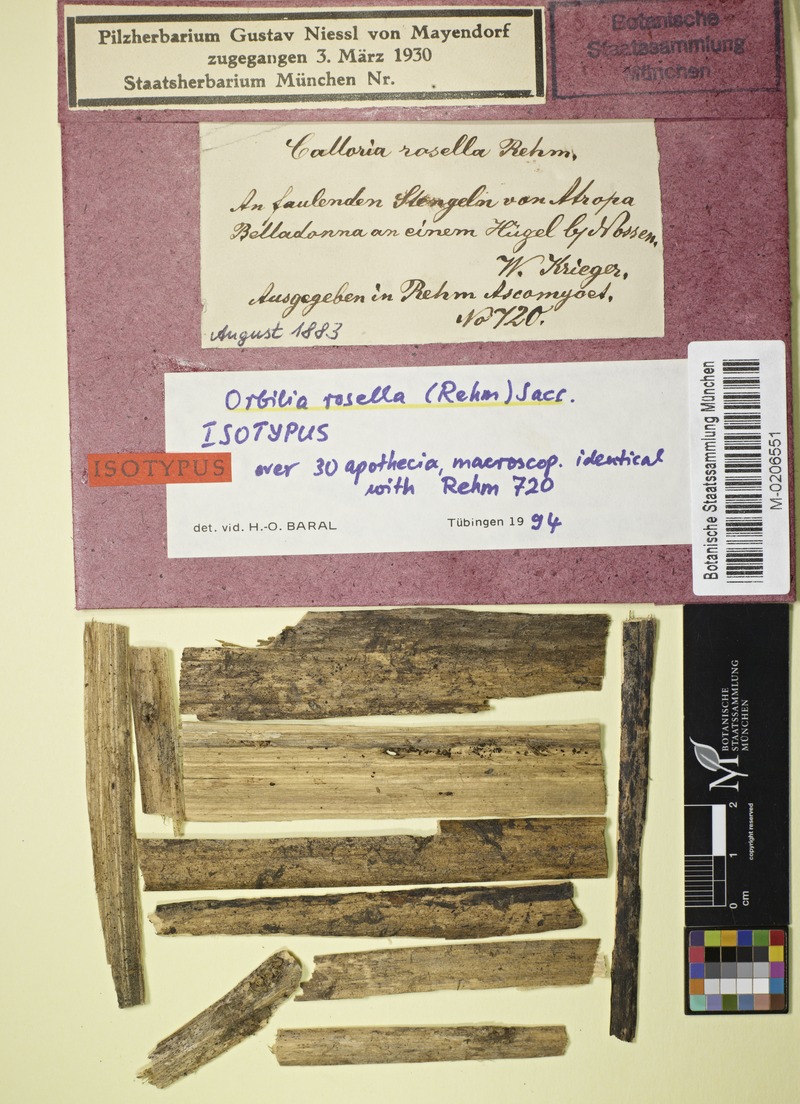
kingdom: Fungi
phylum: Ascomycota
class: Orbiliomycetes
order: Orbiliales
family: Orbiliaceae
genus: Orbilia
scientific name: Orbilia rosella
